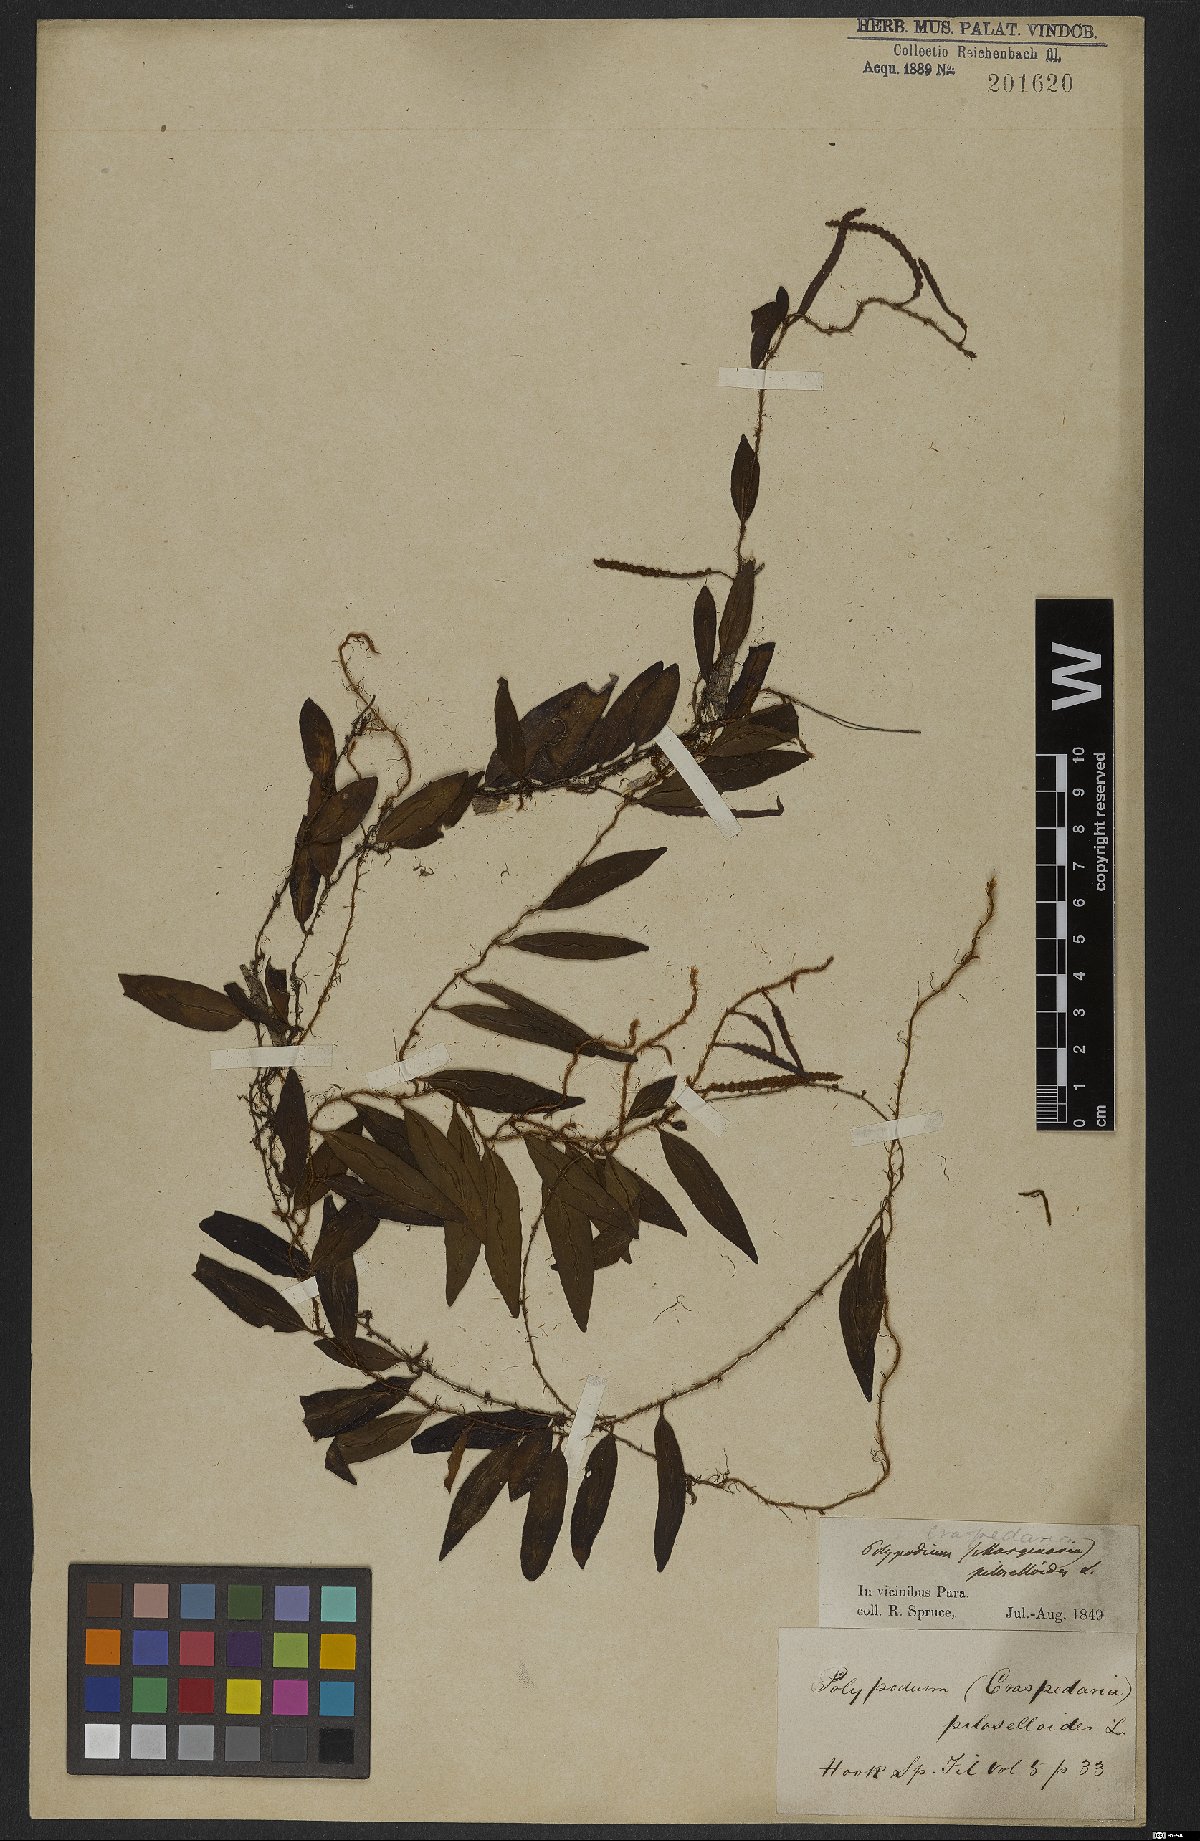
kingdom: Plantae
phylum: Tracheophyta
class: Polypodiopsida
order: Polypodiales
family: Polypodiaceae
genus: Microgramma
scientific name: Microgramma piloselloides
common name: Hairy snakefern
